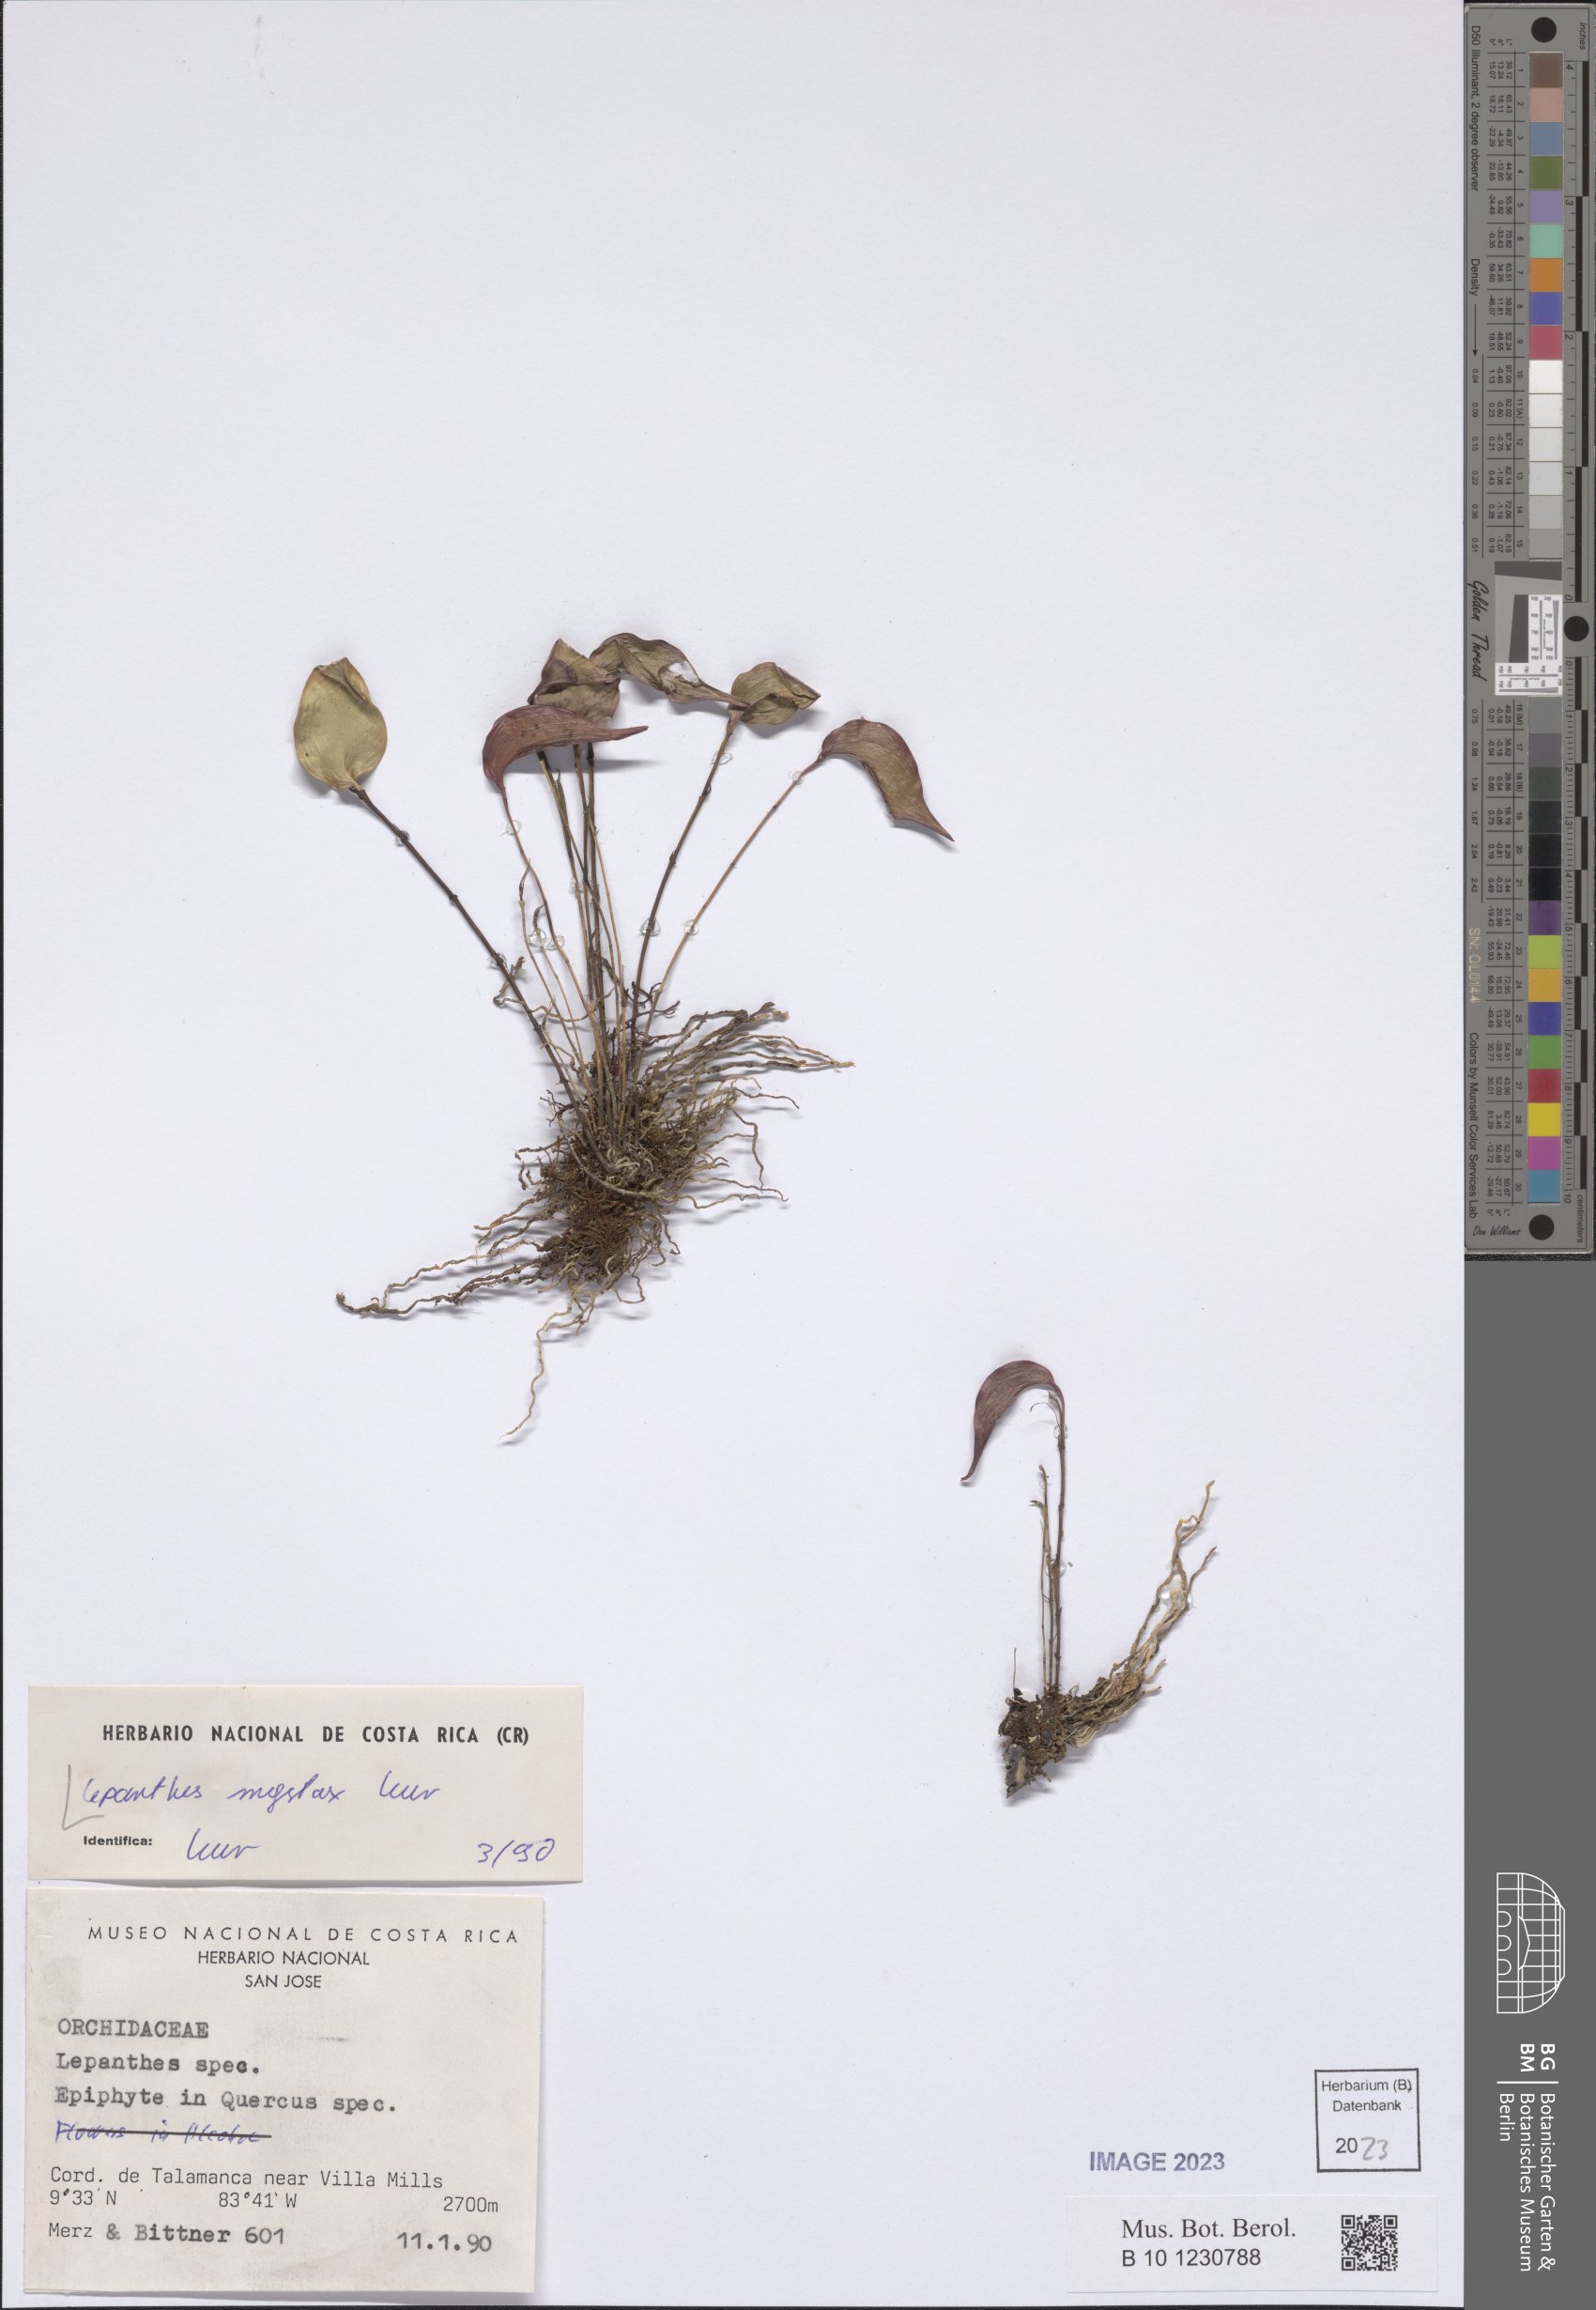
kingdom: Plantae
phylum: Tracheophyta
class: Liliopsida
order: Asparagales
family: Orchidaceae
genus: Lepanthes
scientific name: Lepanthes mystax
